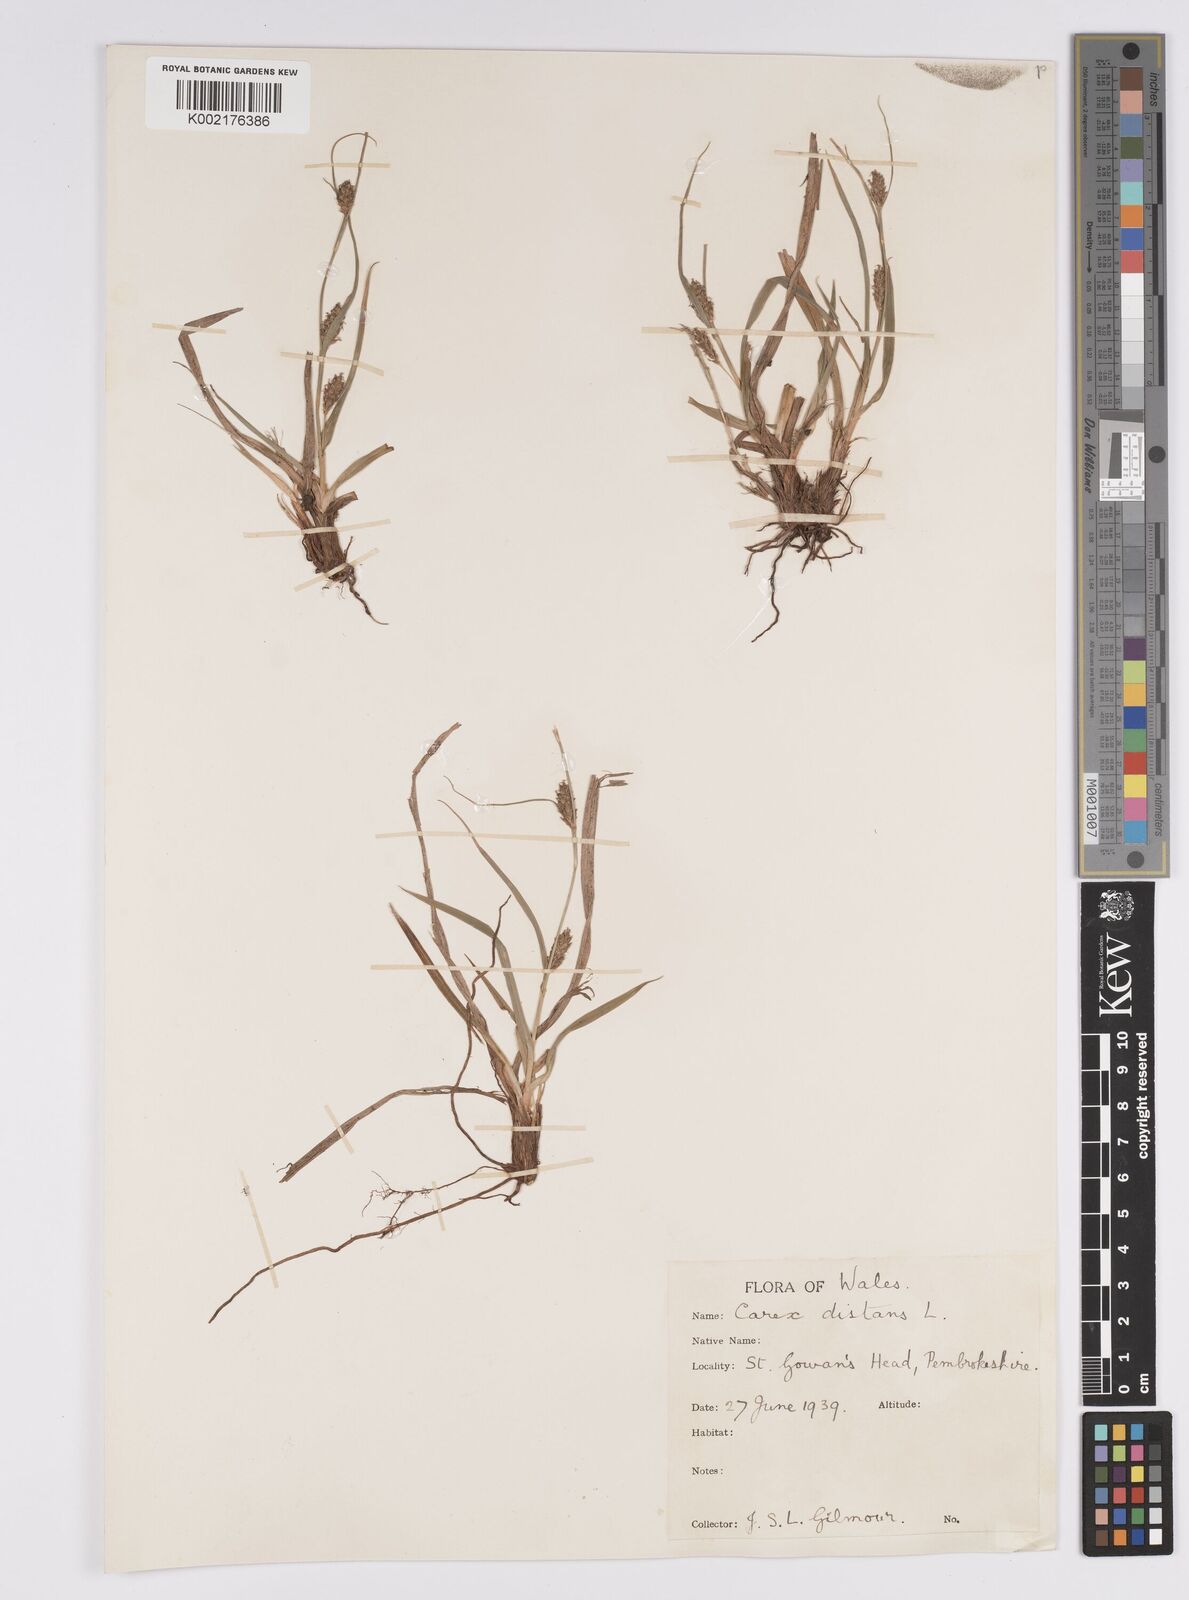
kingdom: Plantae
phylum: Tracheophyta
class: Liliopsida
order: Poales
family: Cyperaceae
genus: Carex
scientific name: Carex distans
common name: Distant sedge
